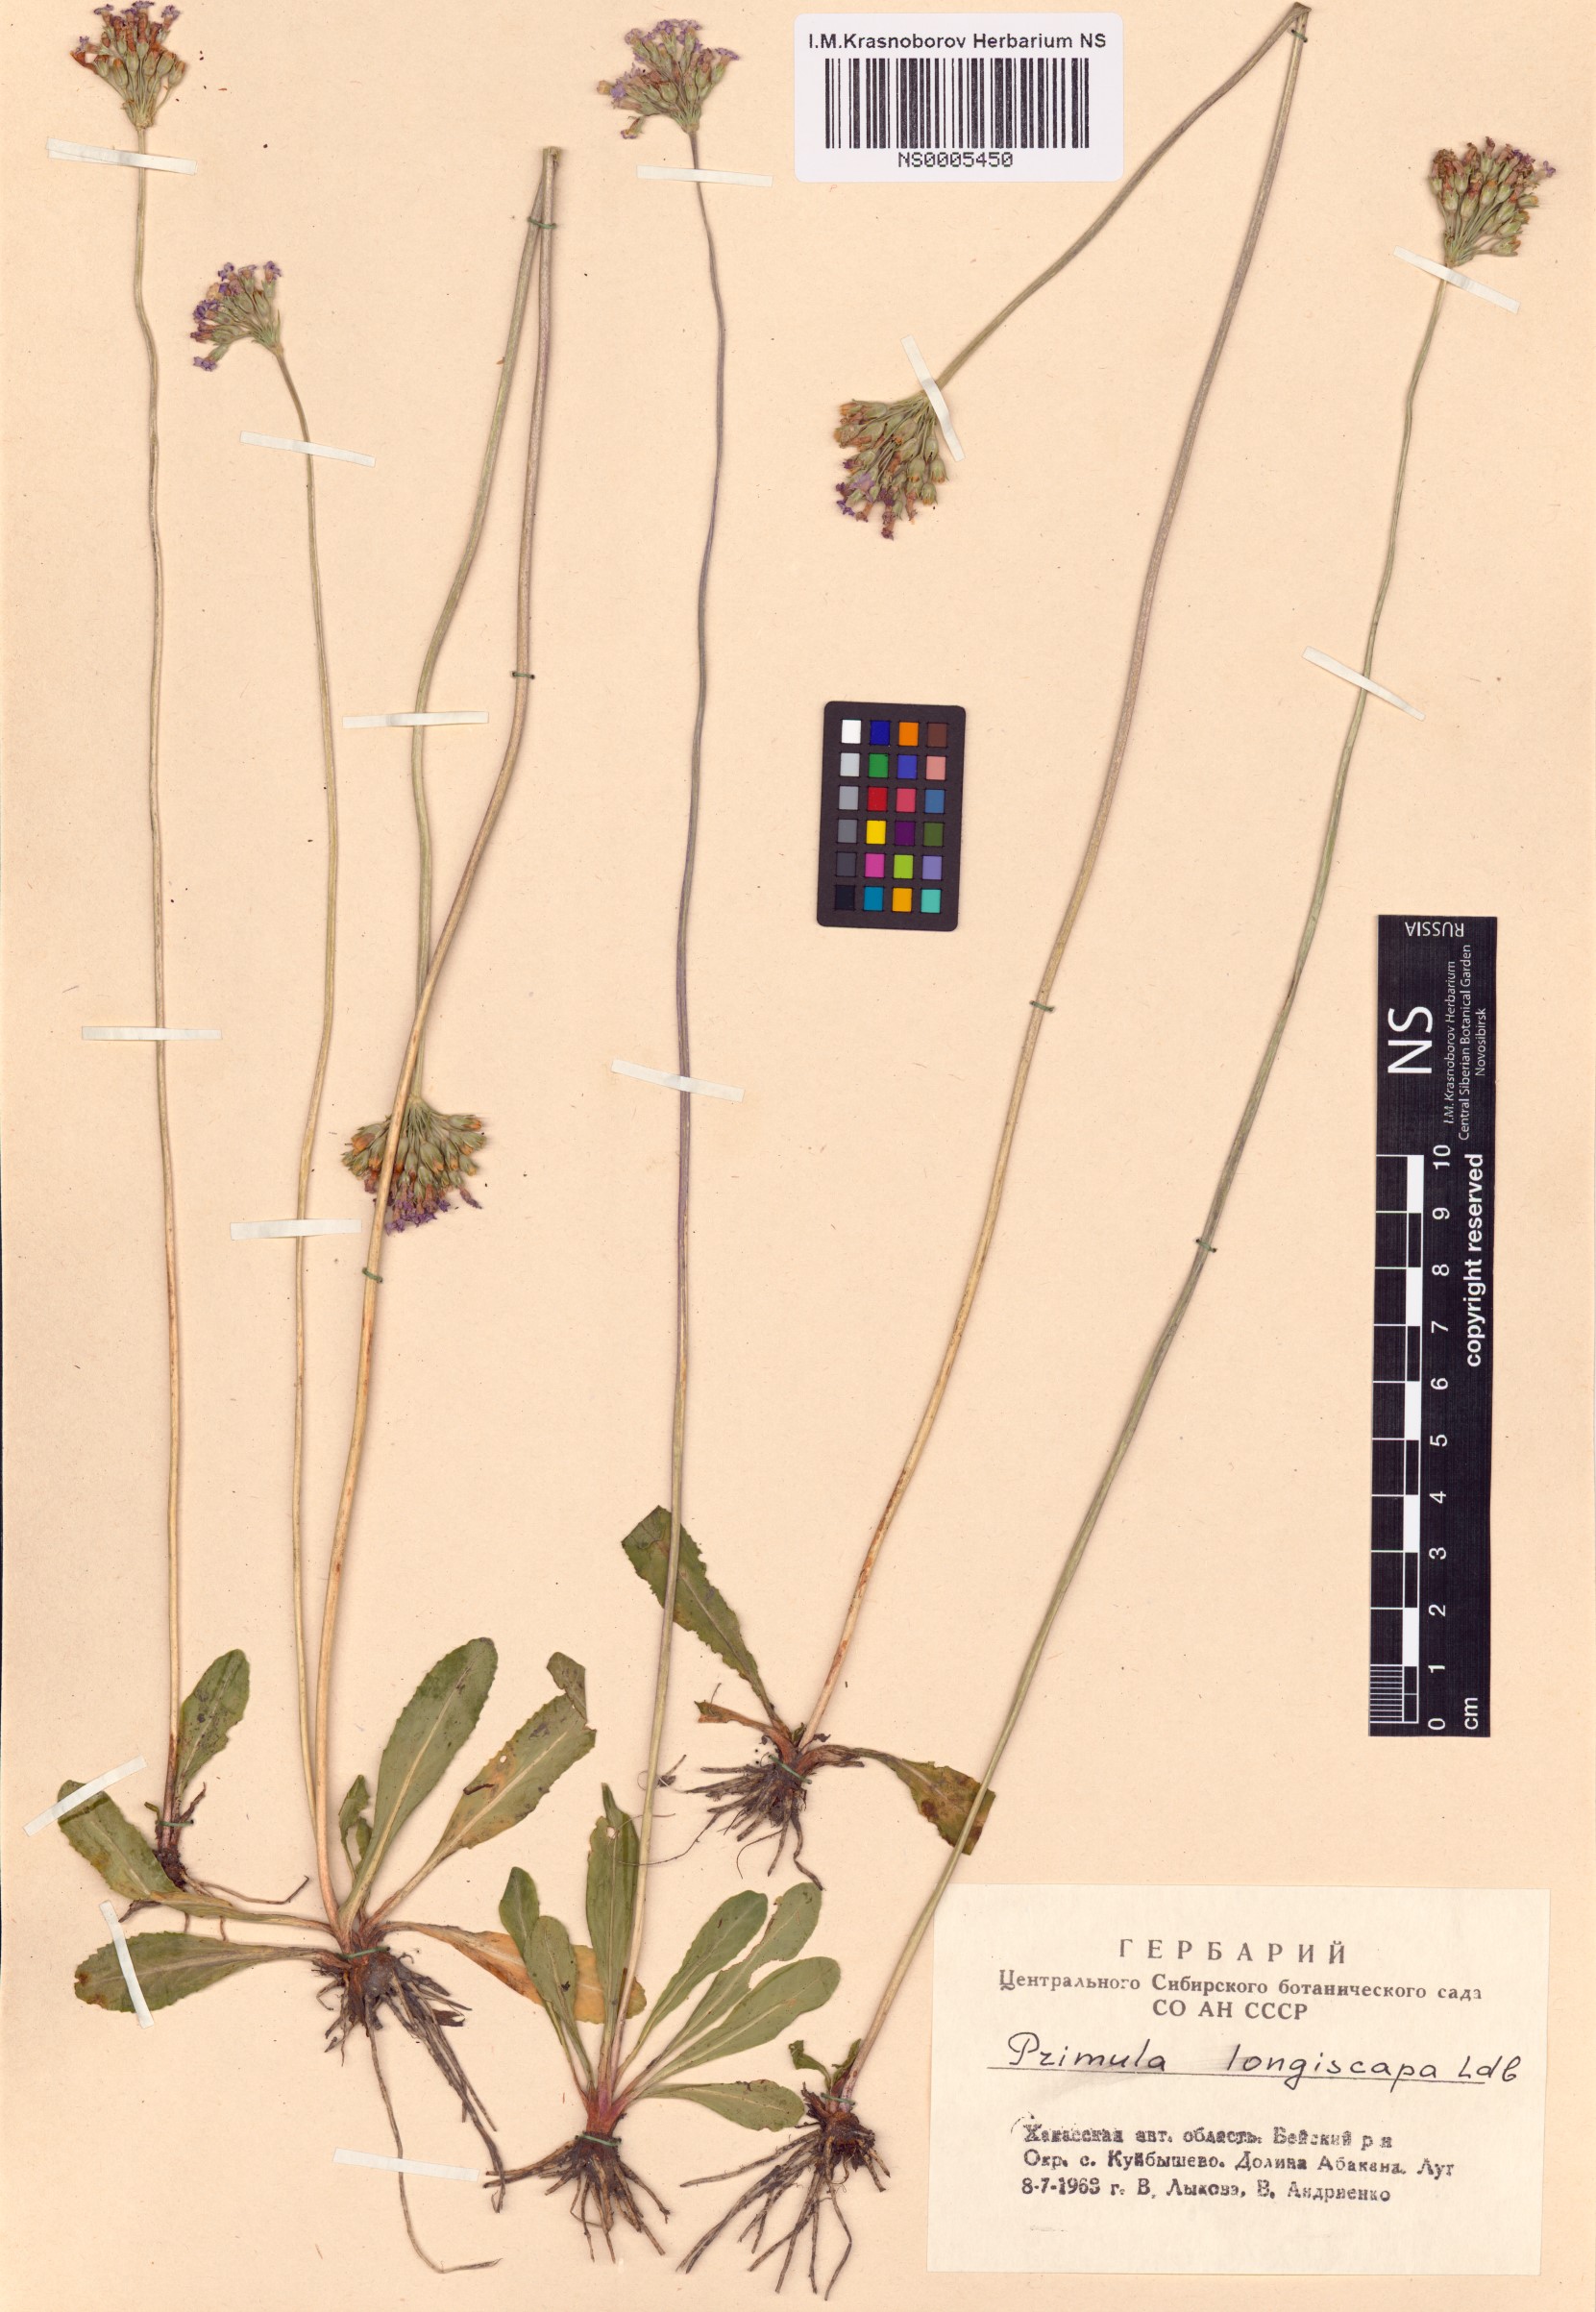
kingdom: Plantae
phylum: Tracheophyta
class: Magnoliopsida
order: Ericales
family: Primulaceae
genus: Primula
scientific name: Primula longiscapa
